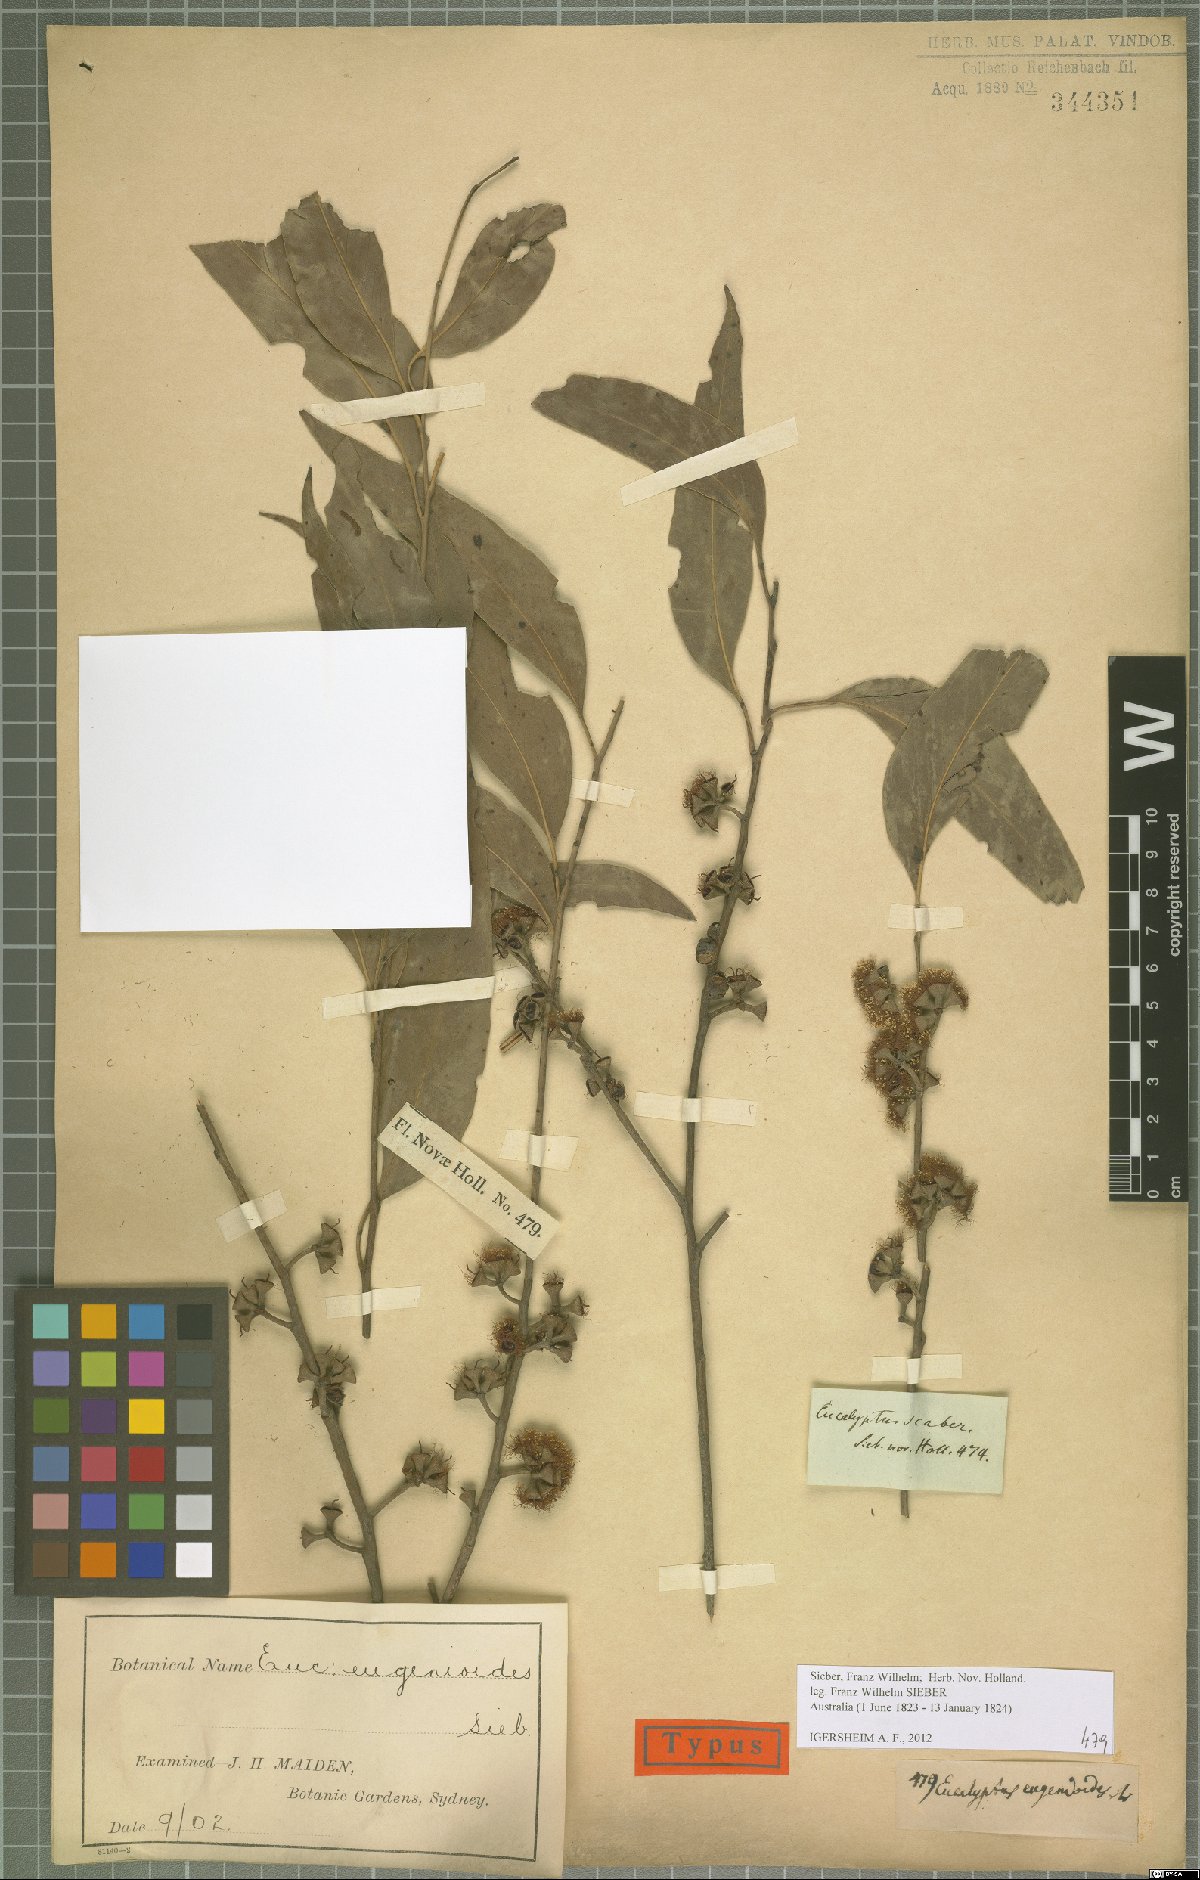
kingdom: Plantae
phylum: Tracheophyta
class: Magnoliopsida
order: Myrtales
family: Myrtaceae
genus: Eucalyptus
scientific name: Eucalyptus eugenioides
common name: Narrow-leaved-stringybark
